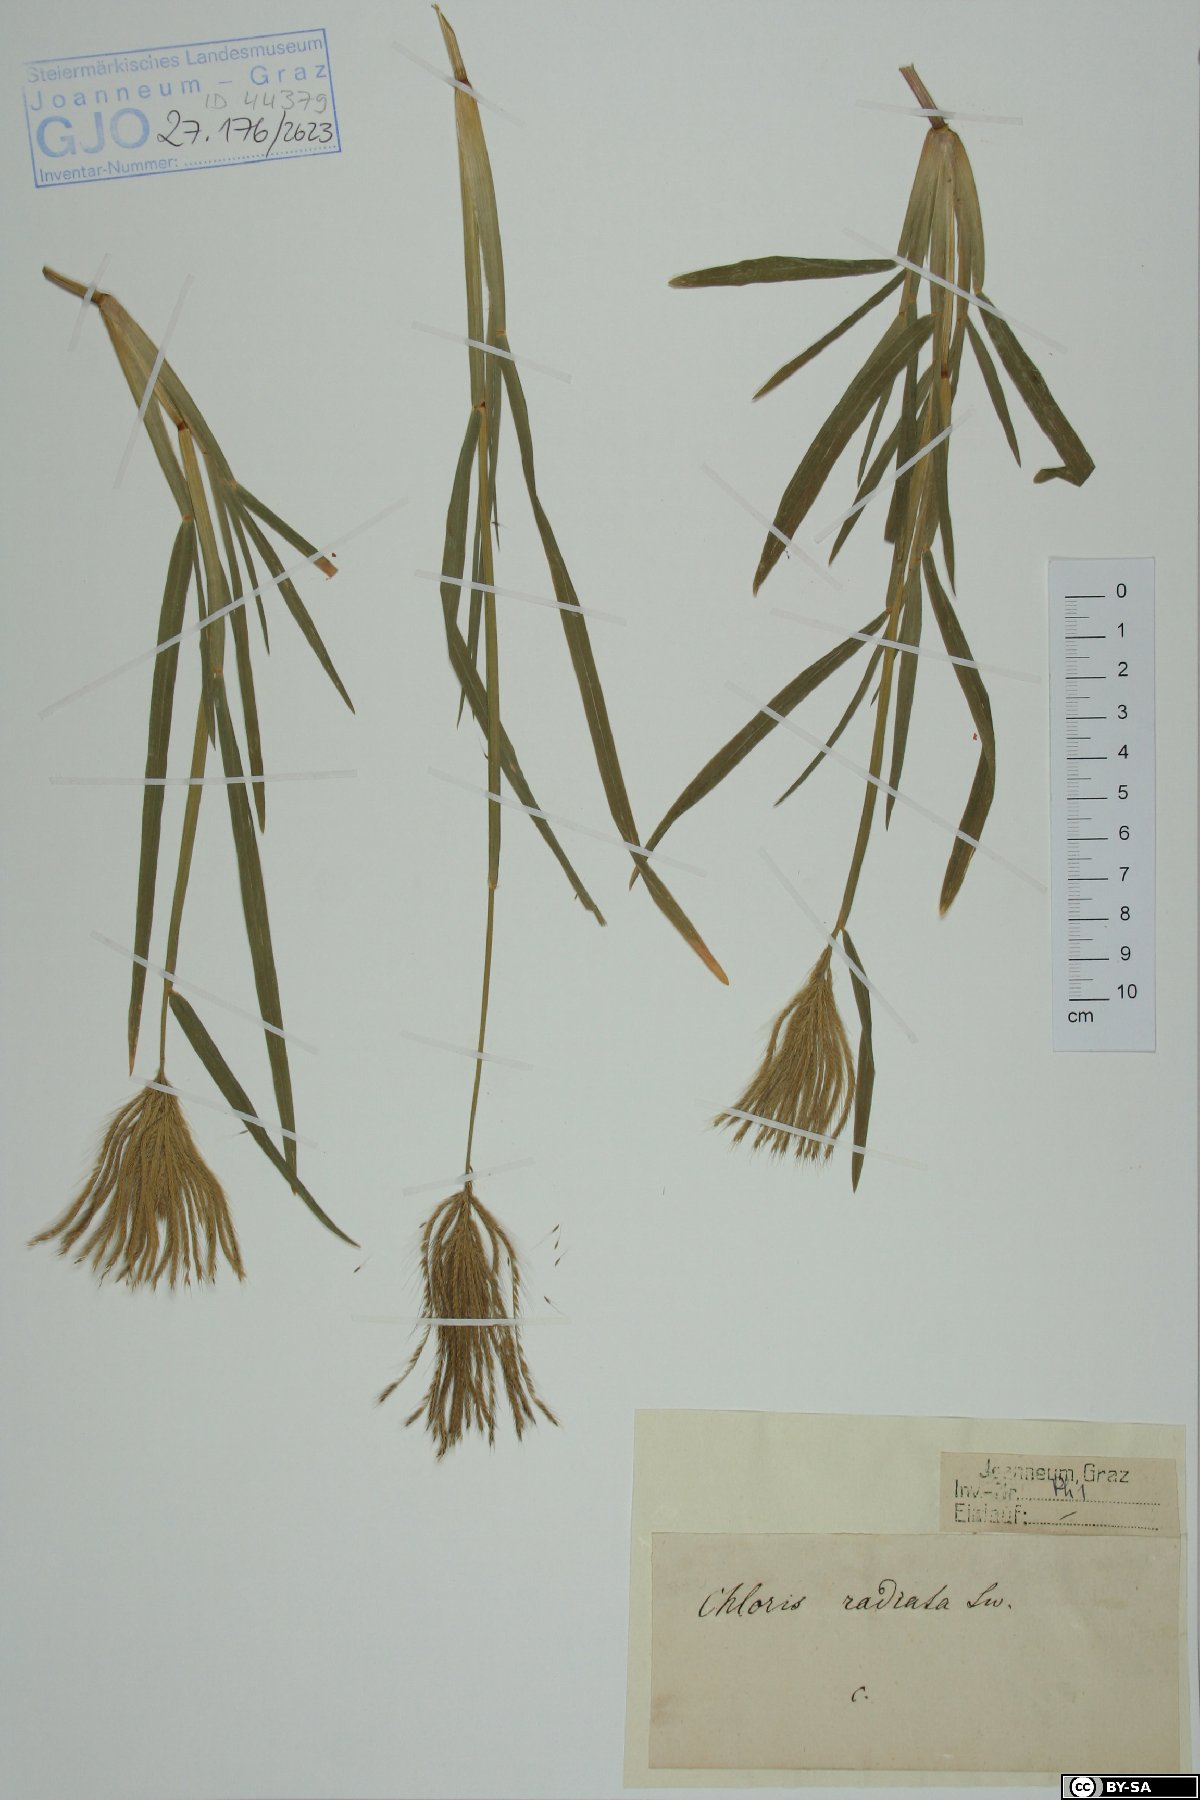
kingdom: Plantae
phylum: Tracheophyta
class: Liliopsida
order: Poales
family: Poaceae
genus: Chloris
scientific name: Chloris radiata
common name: Radiate fingergrass
